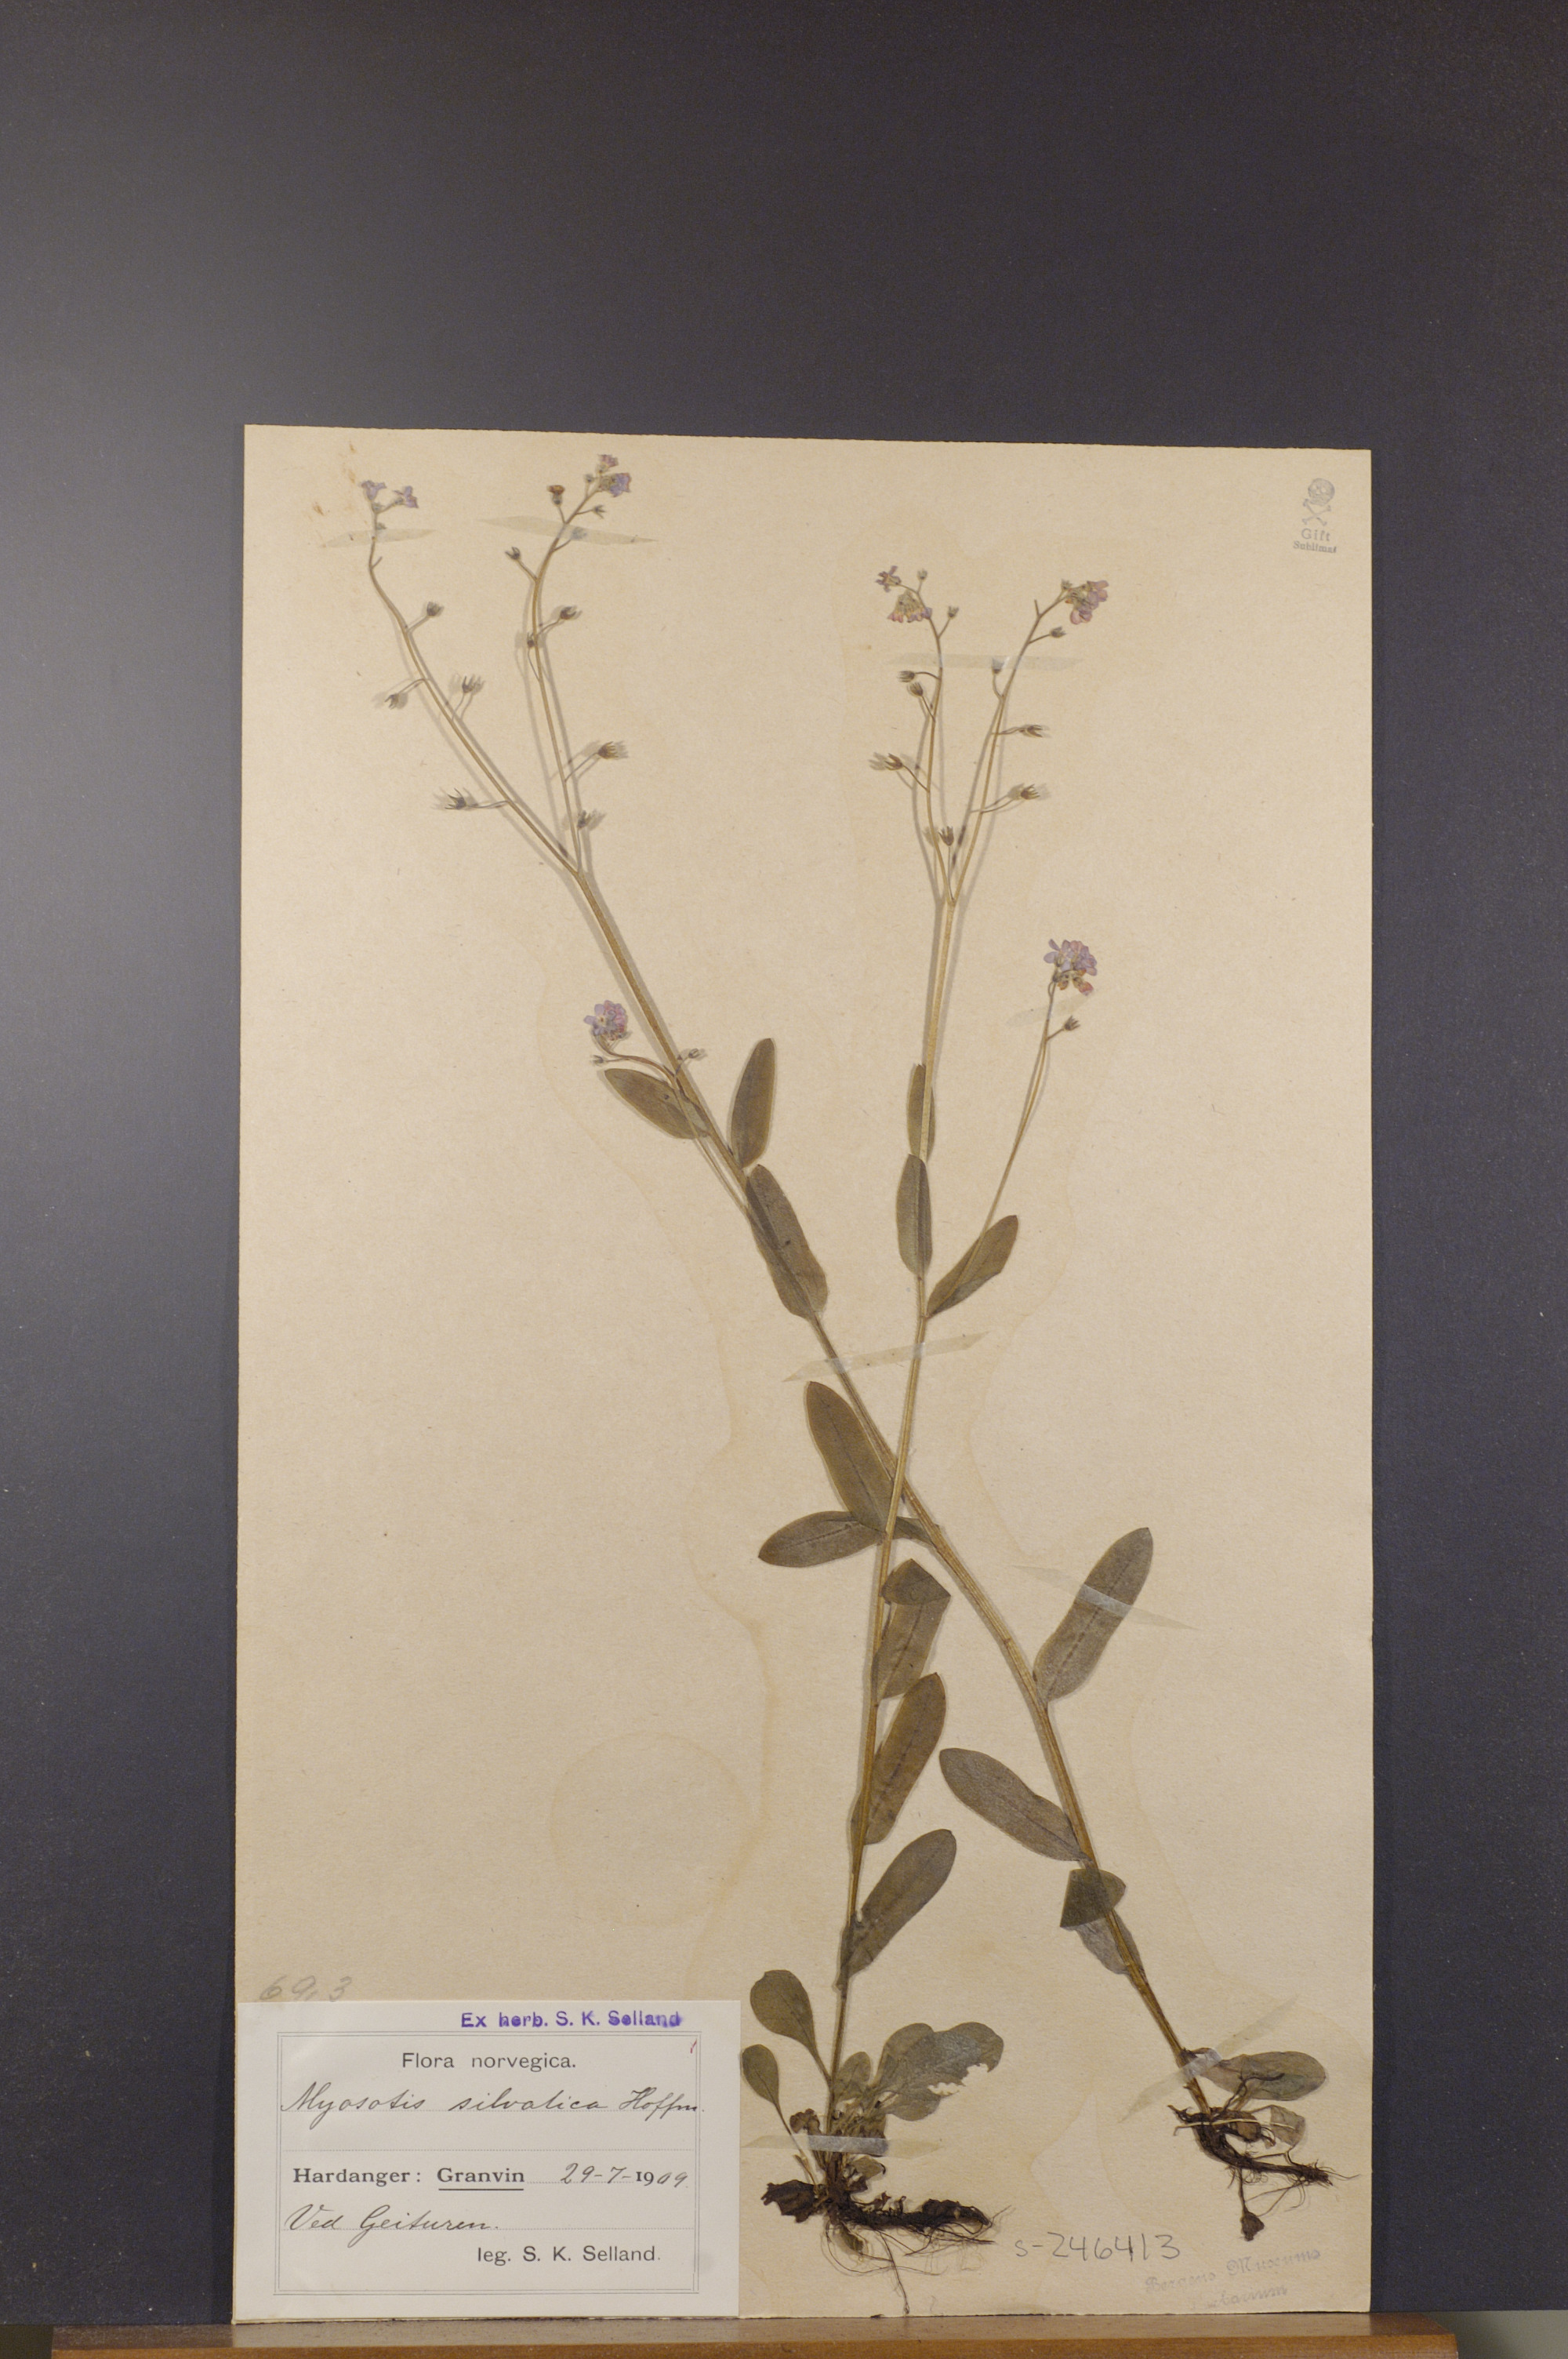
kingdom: Plantae
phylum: Tracheophyta
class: Magnoliopsida
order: Boraginales
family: Boraginaceae
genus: Myosotis
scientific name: Myosotis decumbens
